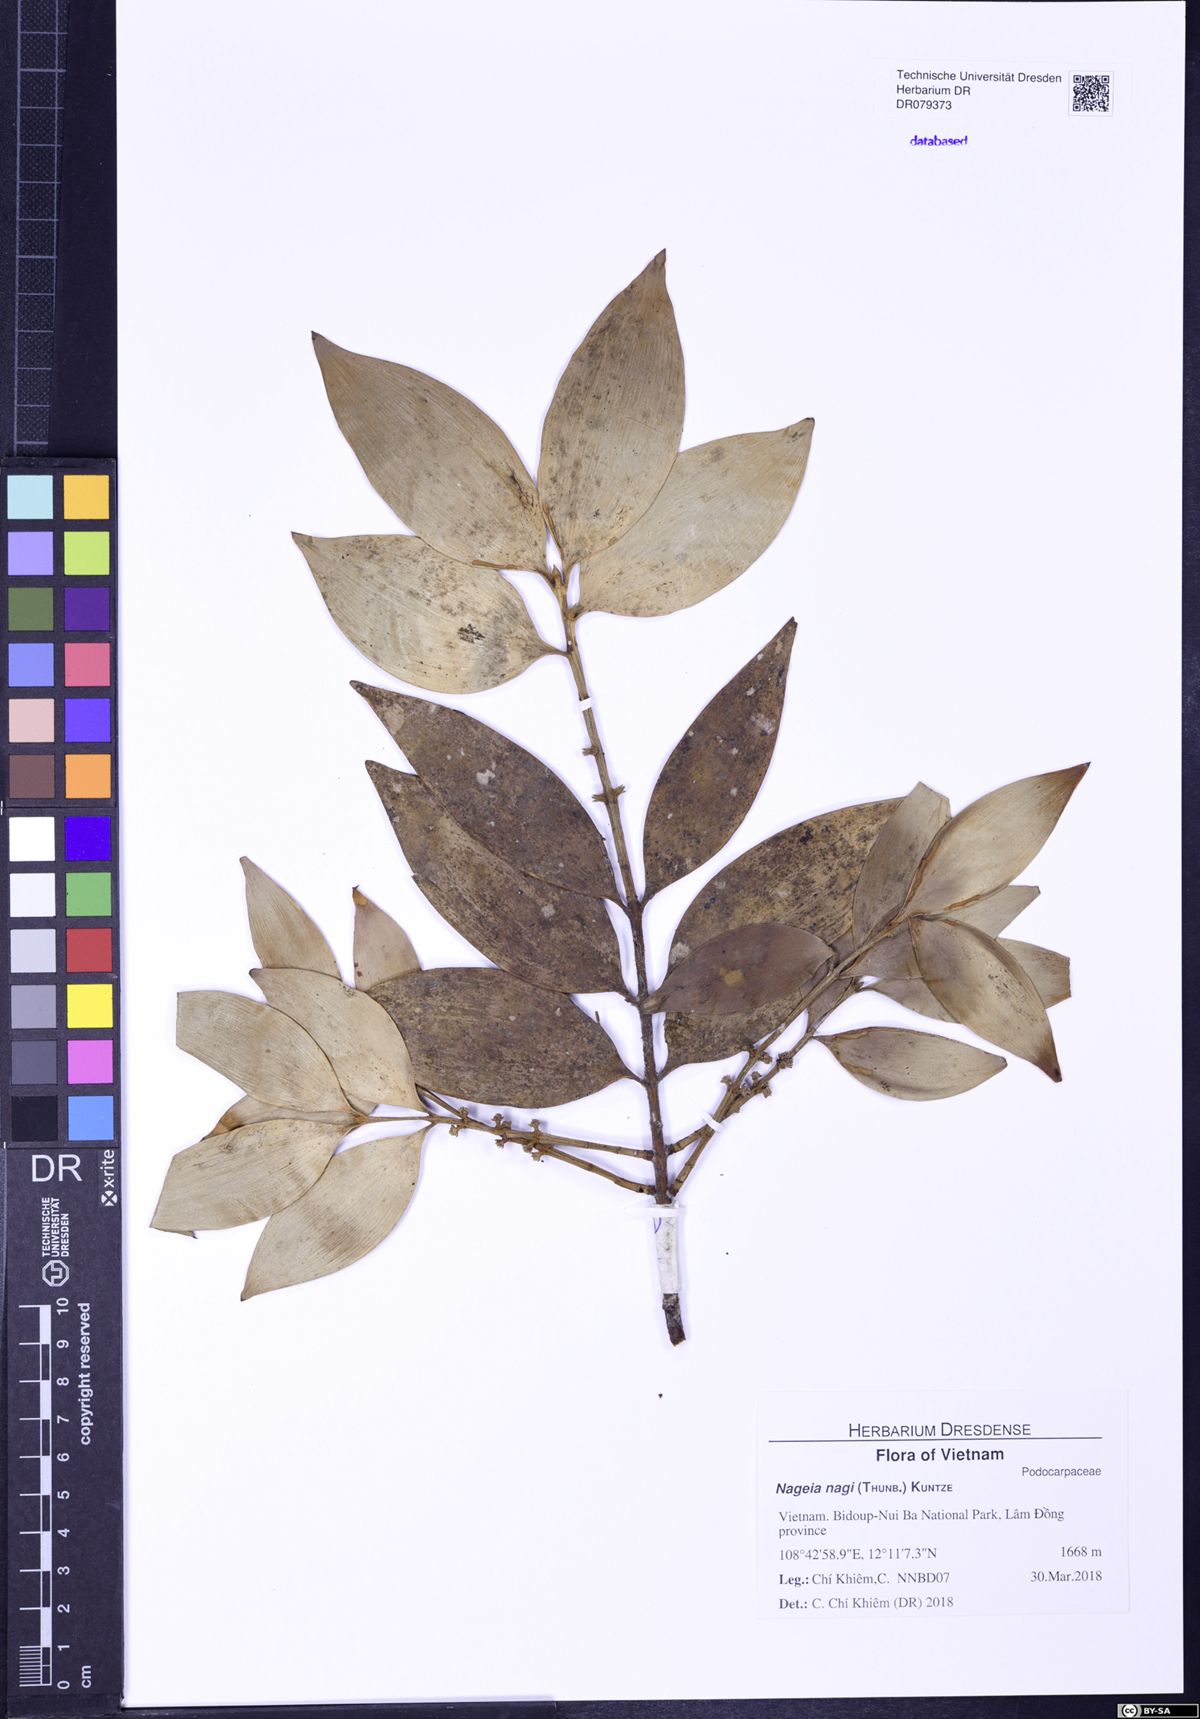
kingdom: Plantae
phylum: Tracheophyta
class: Pinopsida
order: Pinales
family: Podocarpaceae
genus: Nageia
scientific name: Nageia nagi
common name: Kaphal
